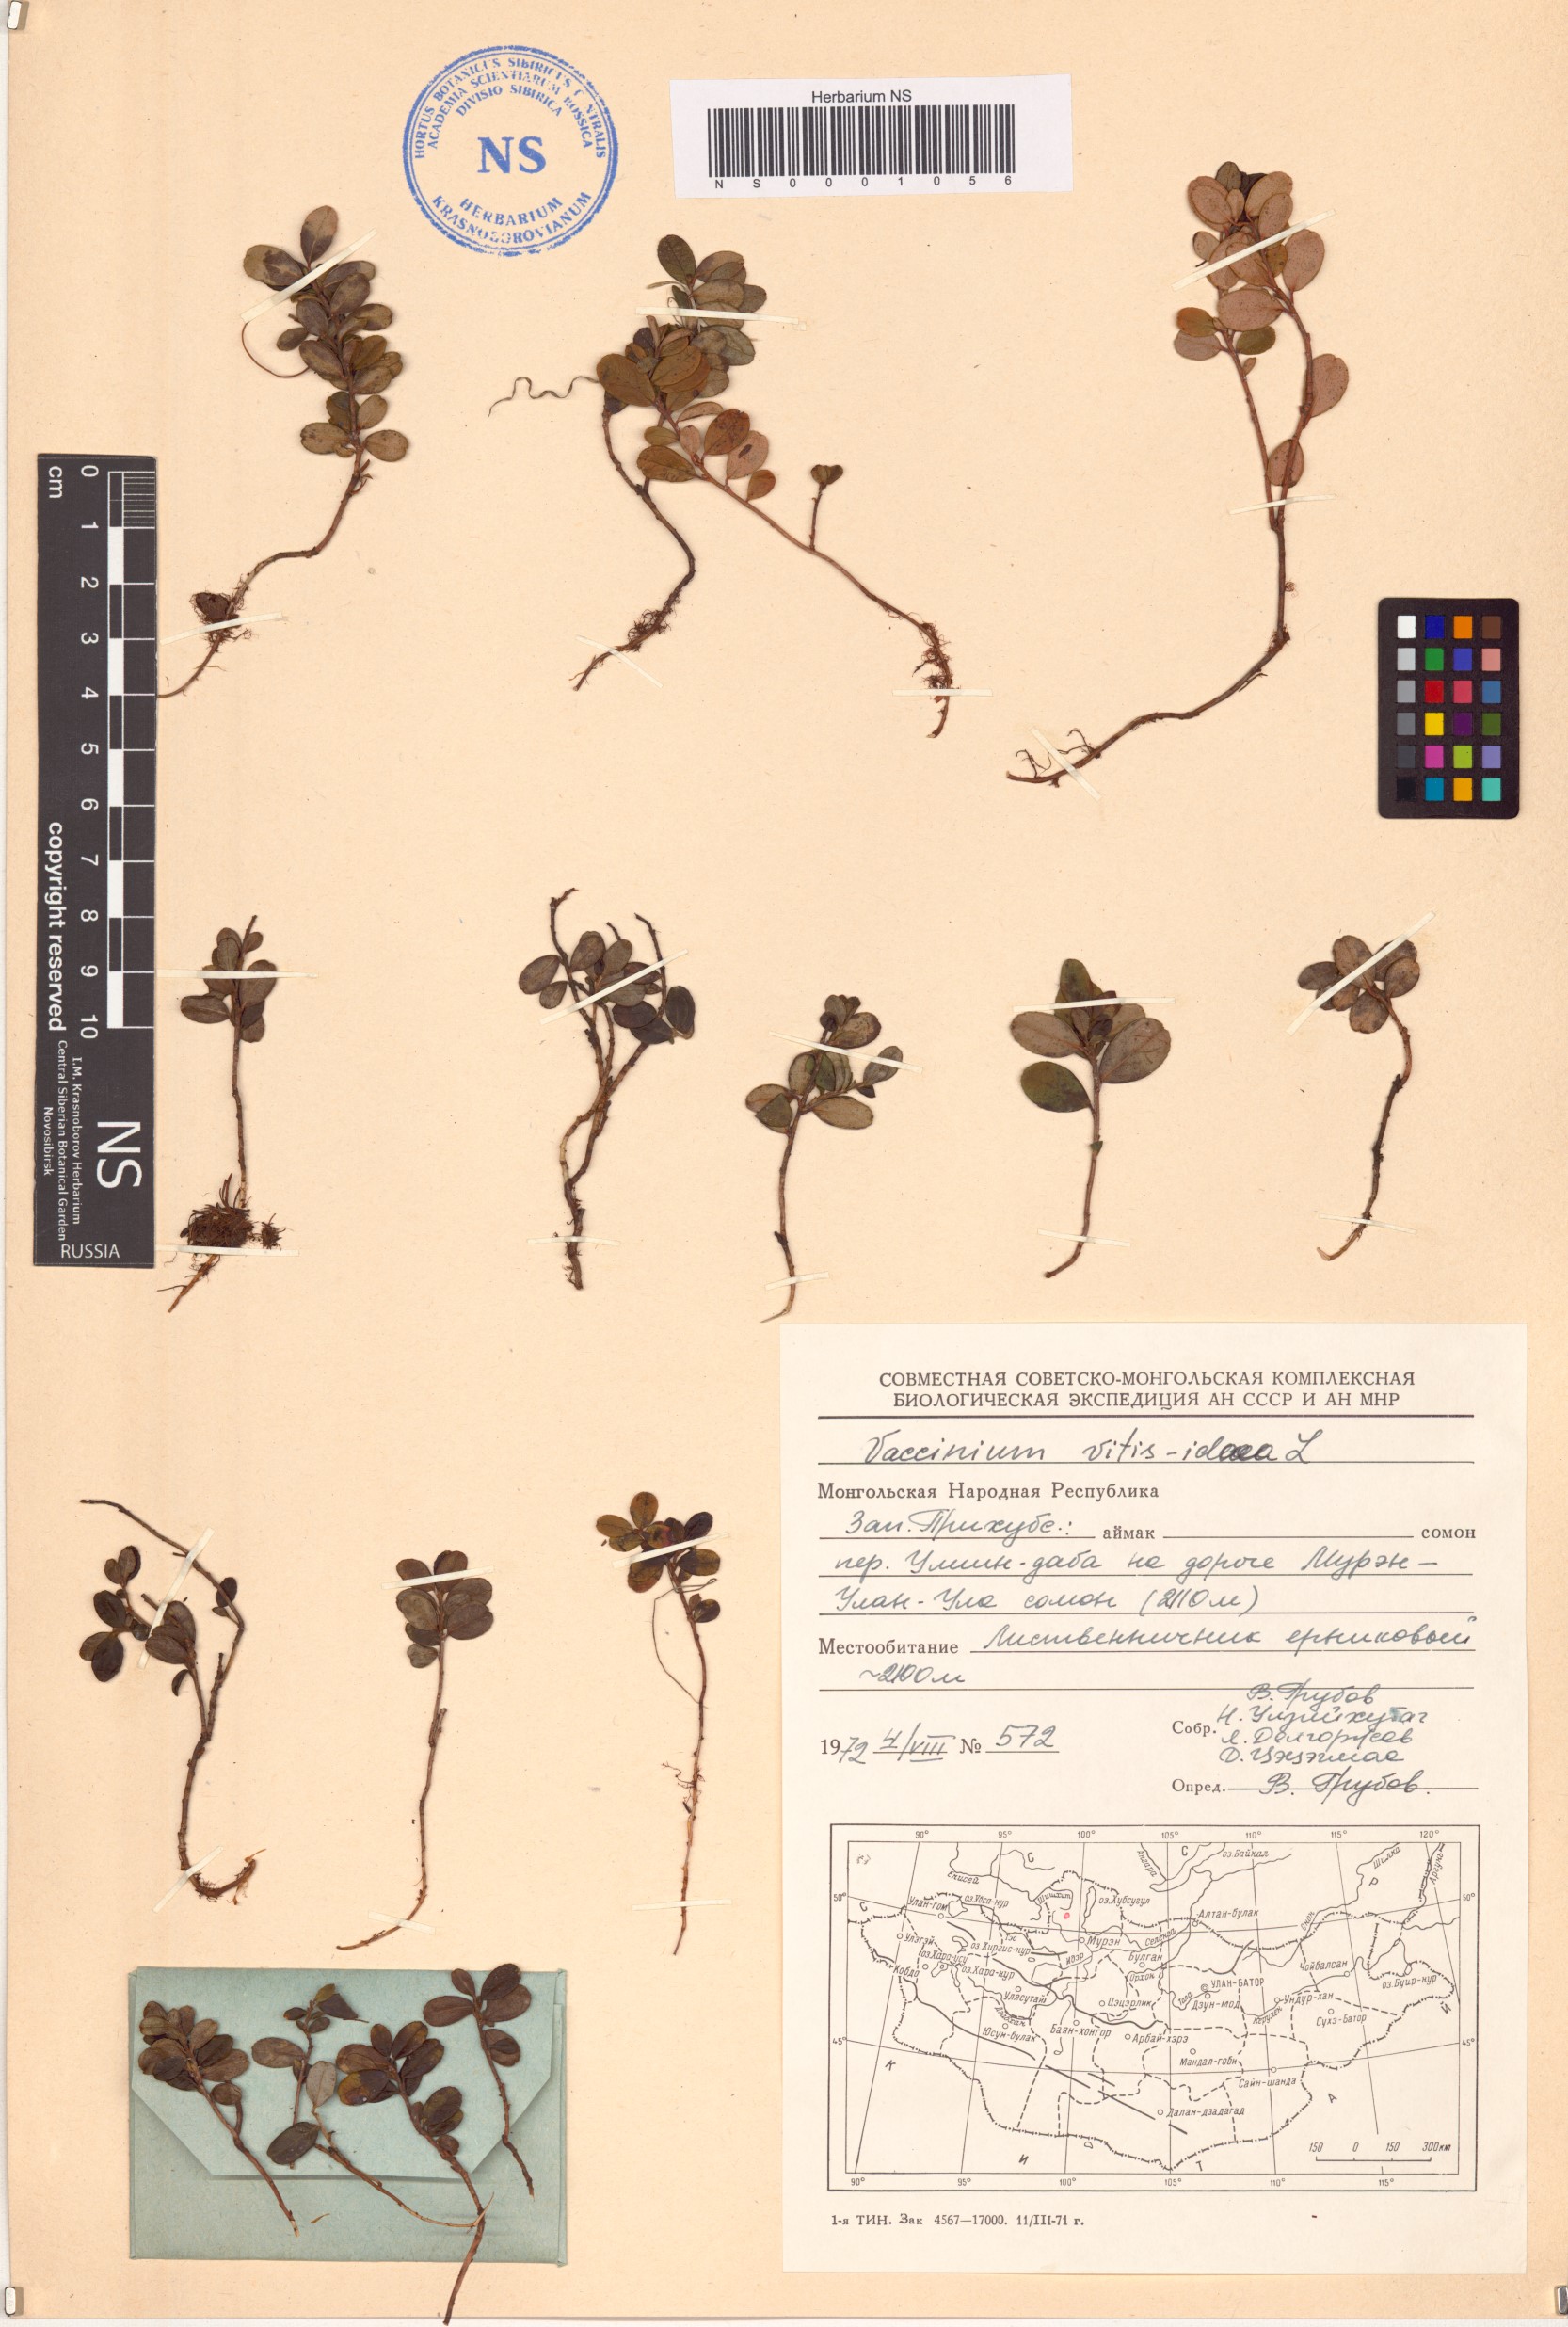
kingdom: Plantae
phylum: Tracheophyta
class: Magnoliopsida
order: Ericales
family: Ericaceae
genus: Vaccinium
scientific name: Vaccinium vitis-idaea
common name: Cowberry
